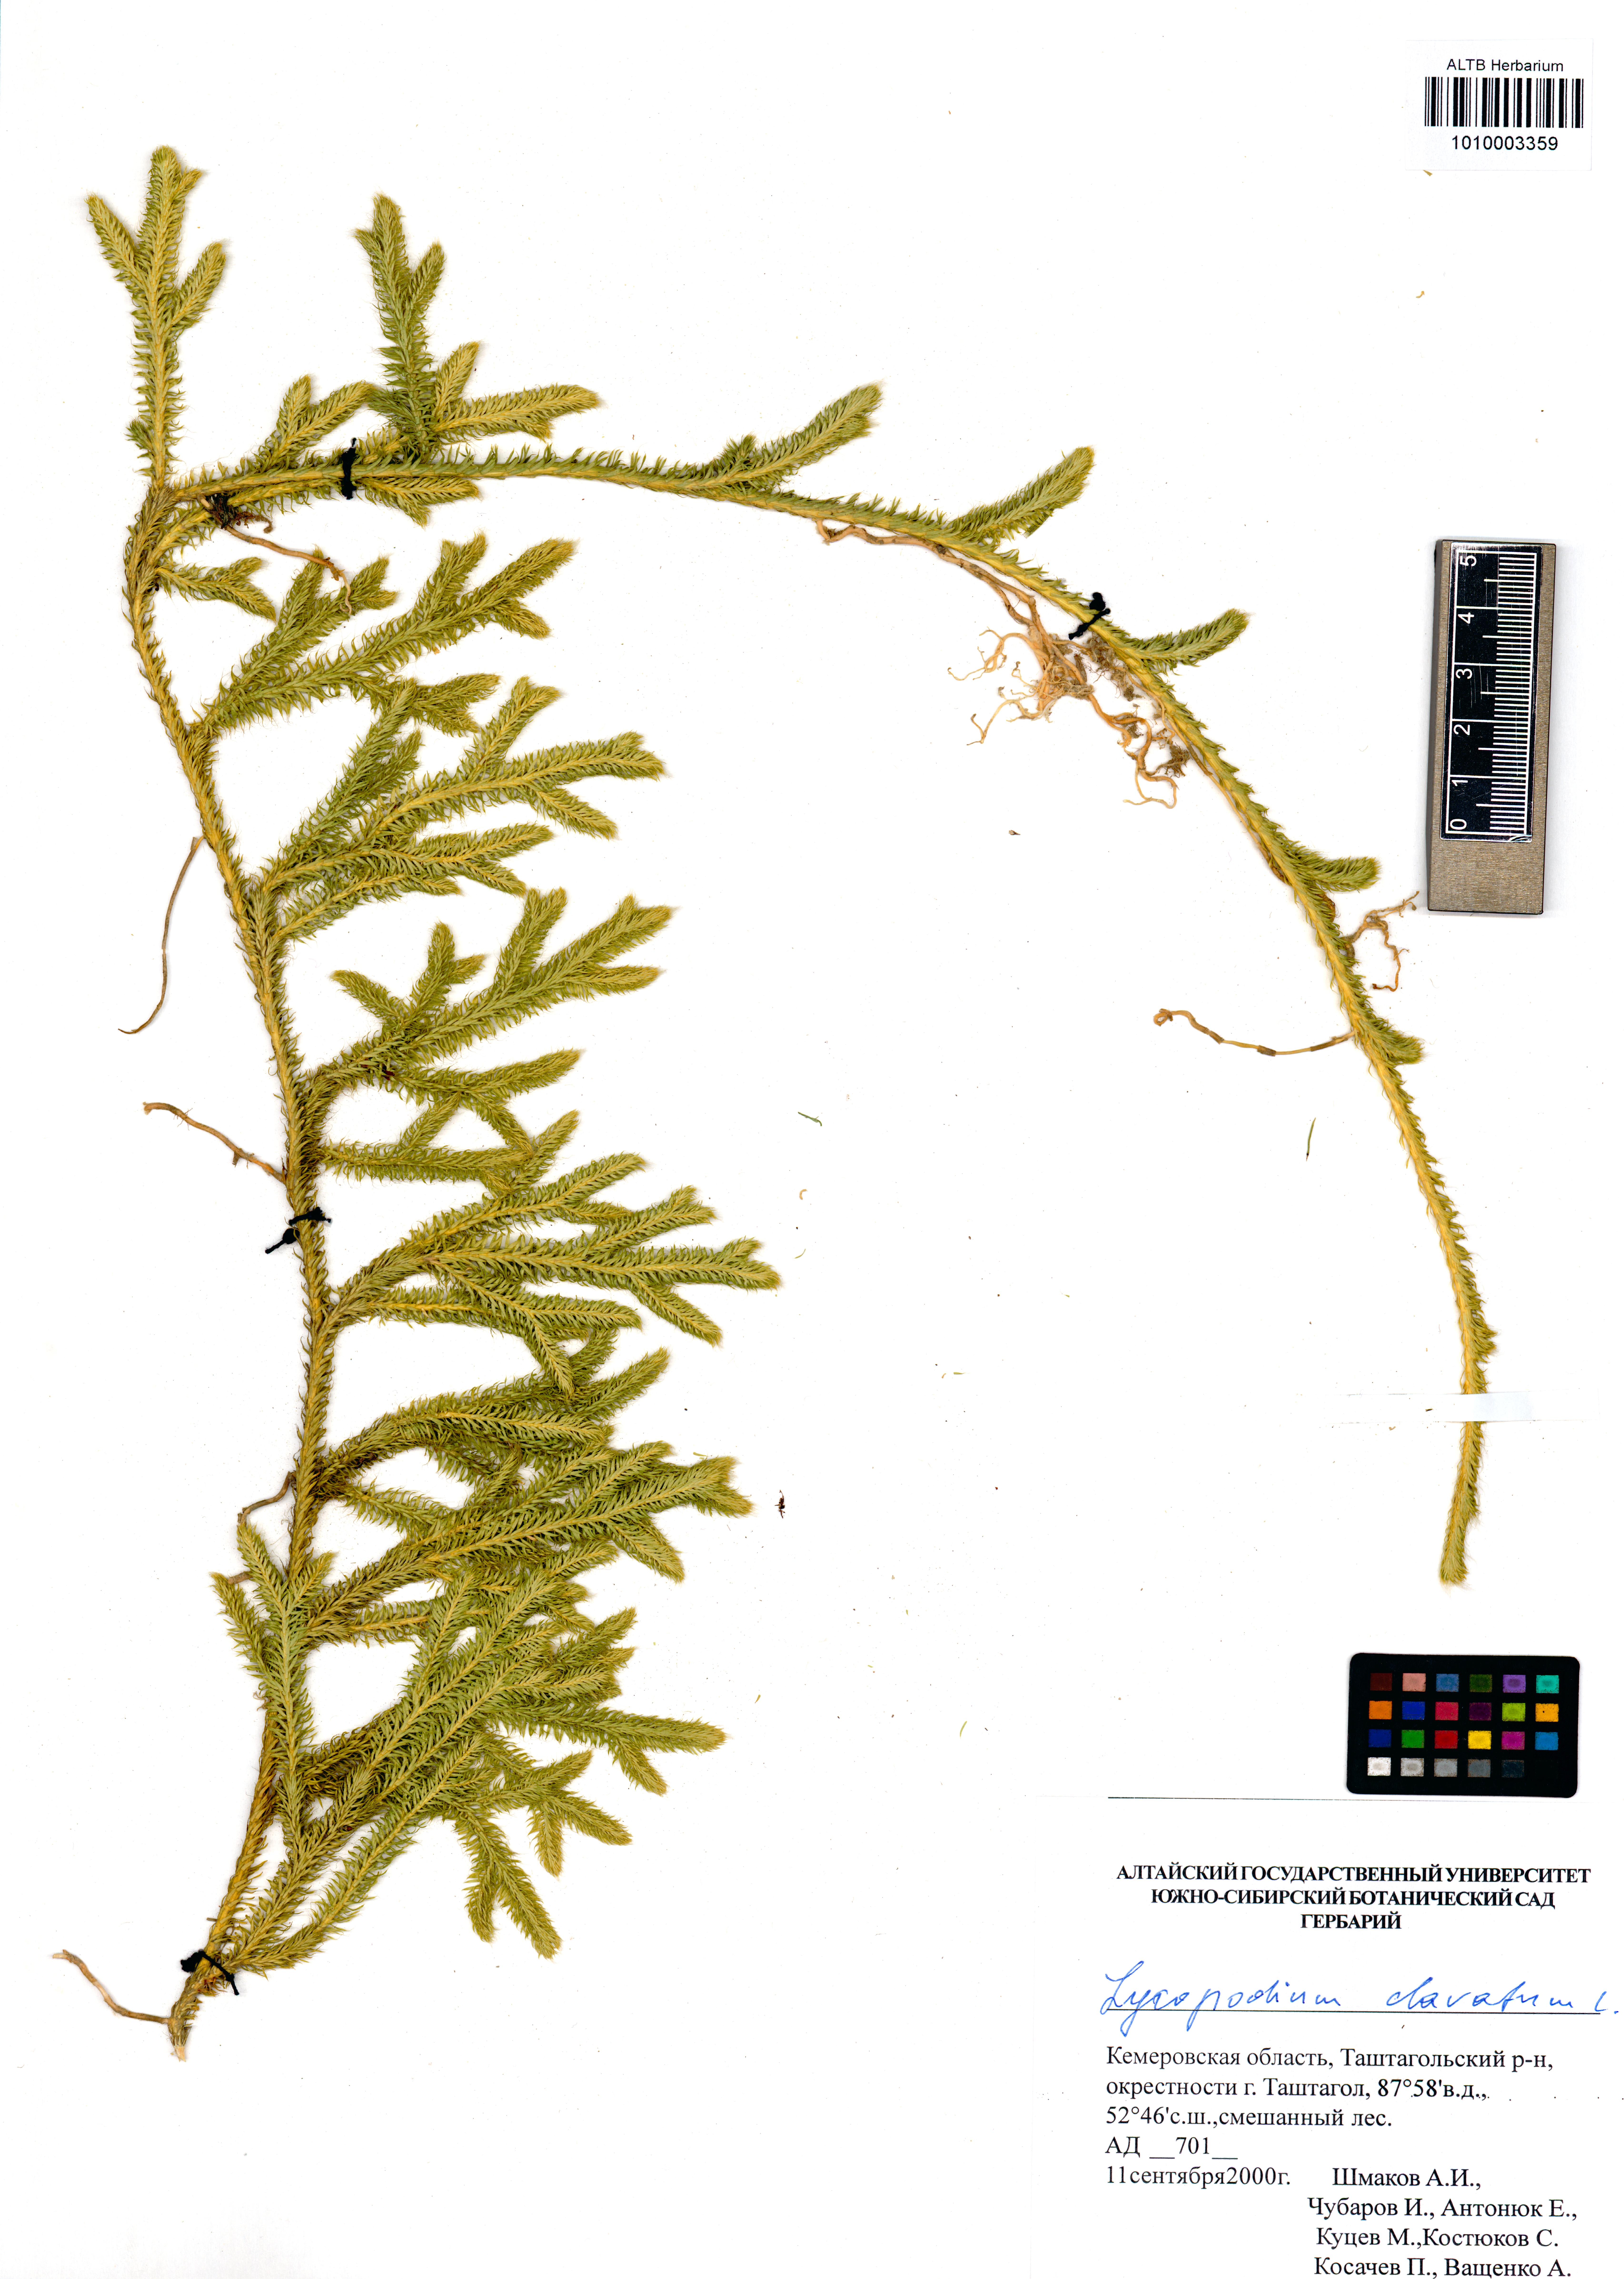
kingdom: Plantae
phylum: Tracheophyta
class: Lycopodiopsida
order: Lycopodiales
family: Lycopodiaceae
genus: Lycopodium
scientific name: Lycopodium clavatum
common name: Stag's-horn clubmoss
